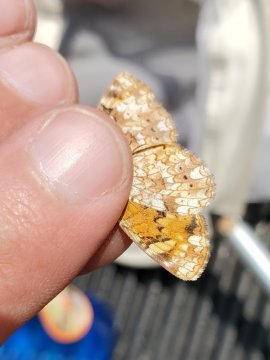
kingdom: Animalia
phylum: Arthropoda
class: Insecta
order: Lepidoptera
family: Nymphalidae
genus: Phyciodes
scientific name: Phyciodes
